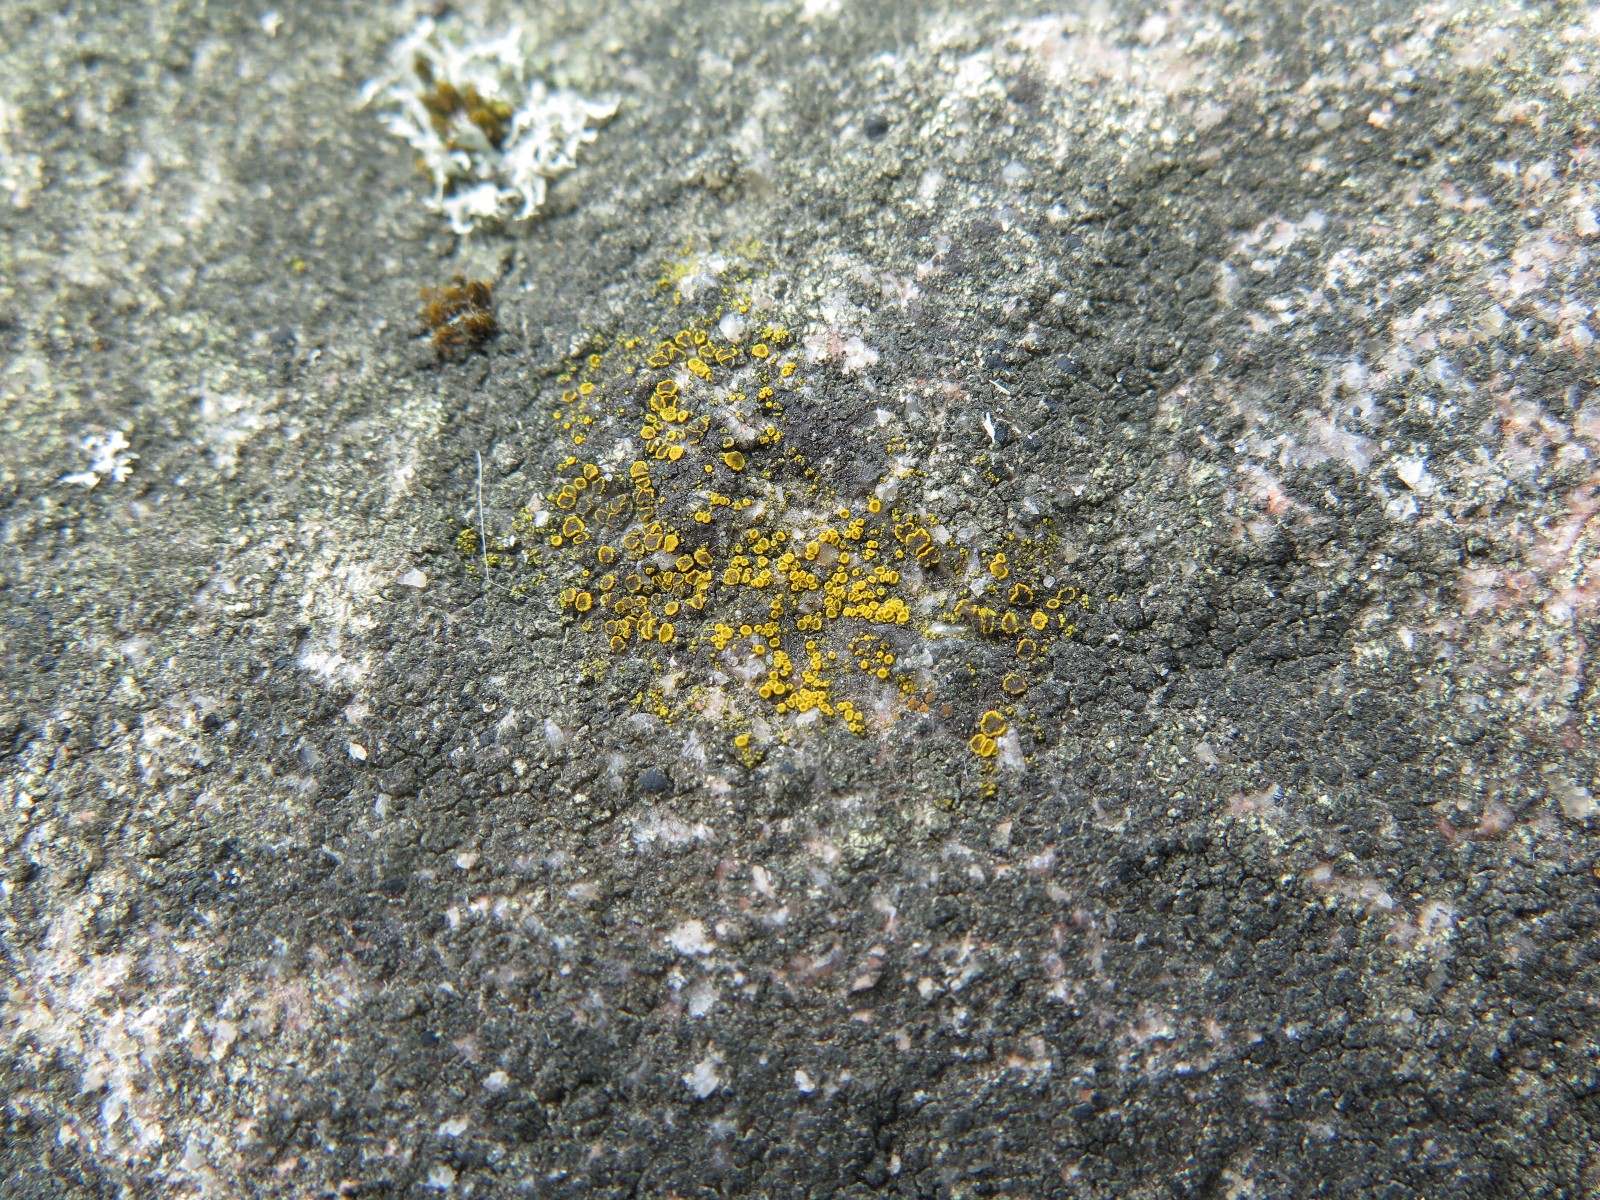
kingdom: Fungi
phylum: Ascomycota
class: Candelariomycetes
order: Candelariales
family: Candelariaceae
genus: Candelariella
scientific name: Candelariella aurella
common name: liden æggeblommelav
